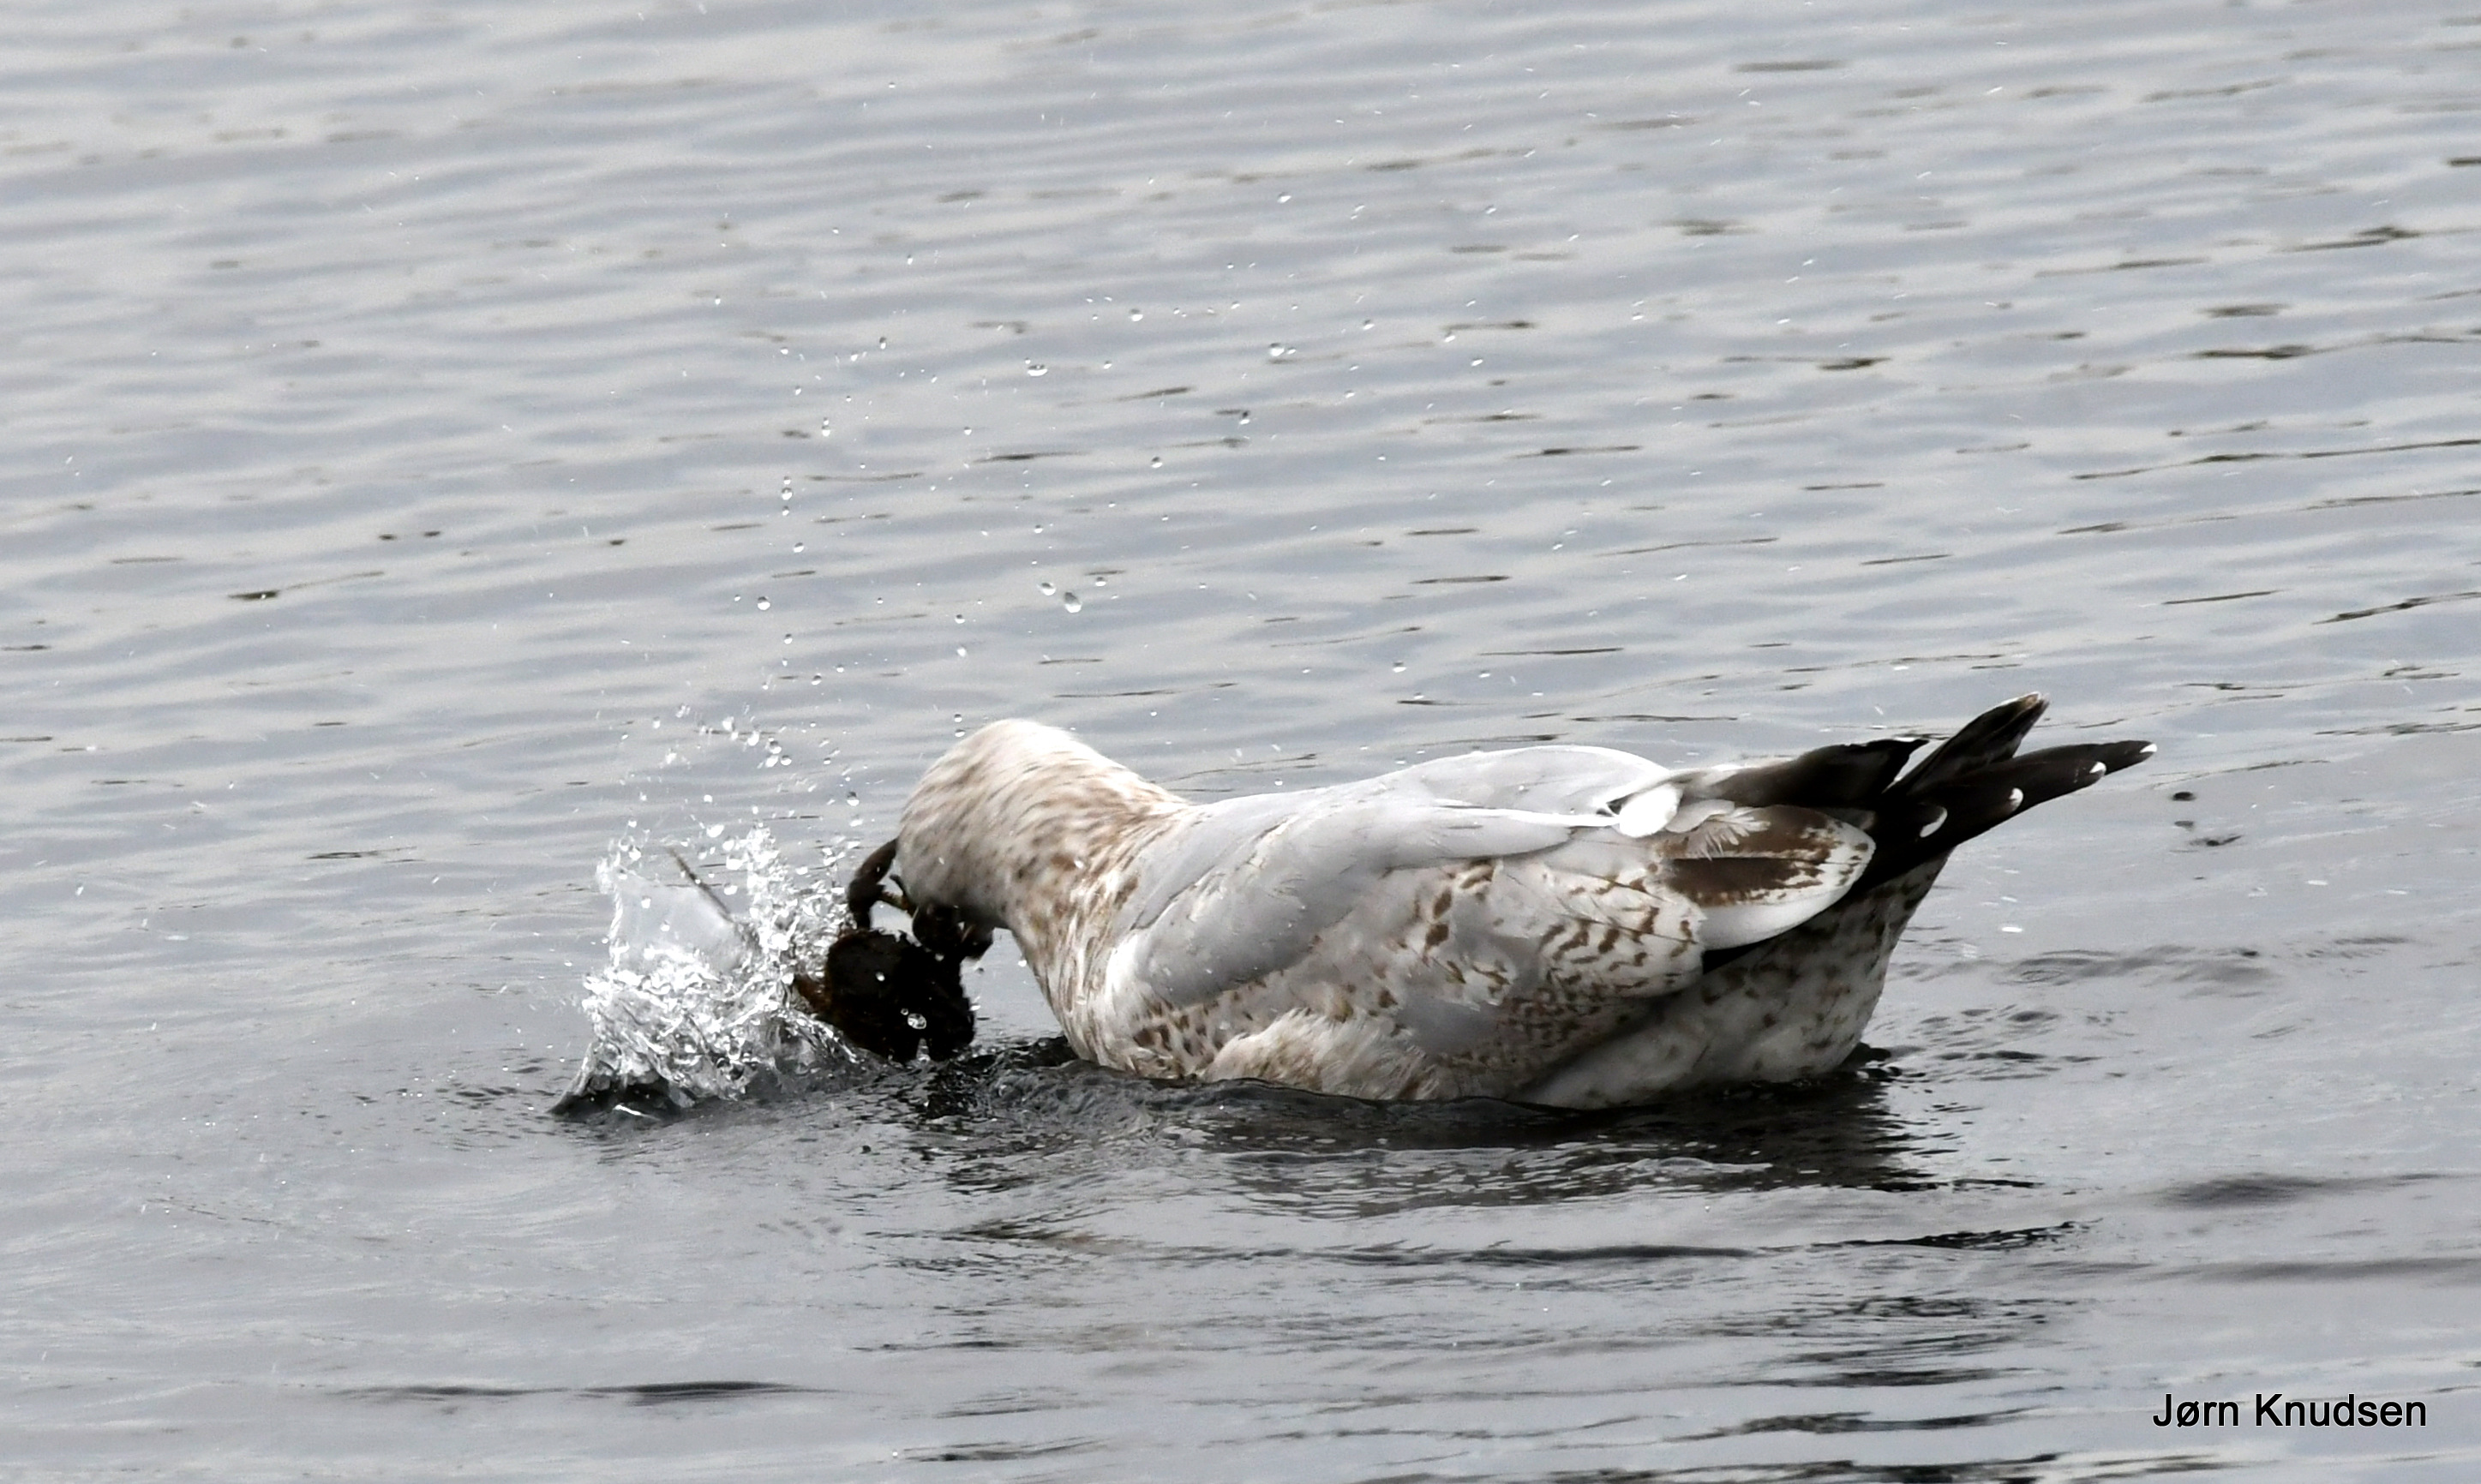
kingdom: Animalia
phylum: Chordata
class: Aves
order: Charadriiformes
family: Laridae
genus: Larus
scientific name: Larus argentatus
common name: Sølvmåge
